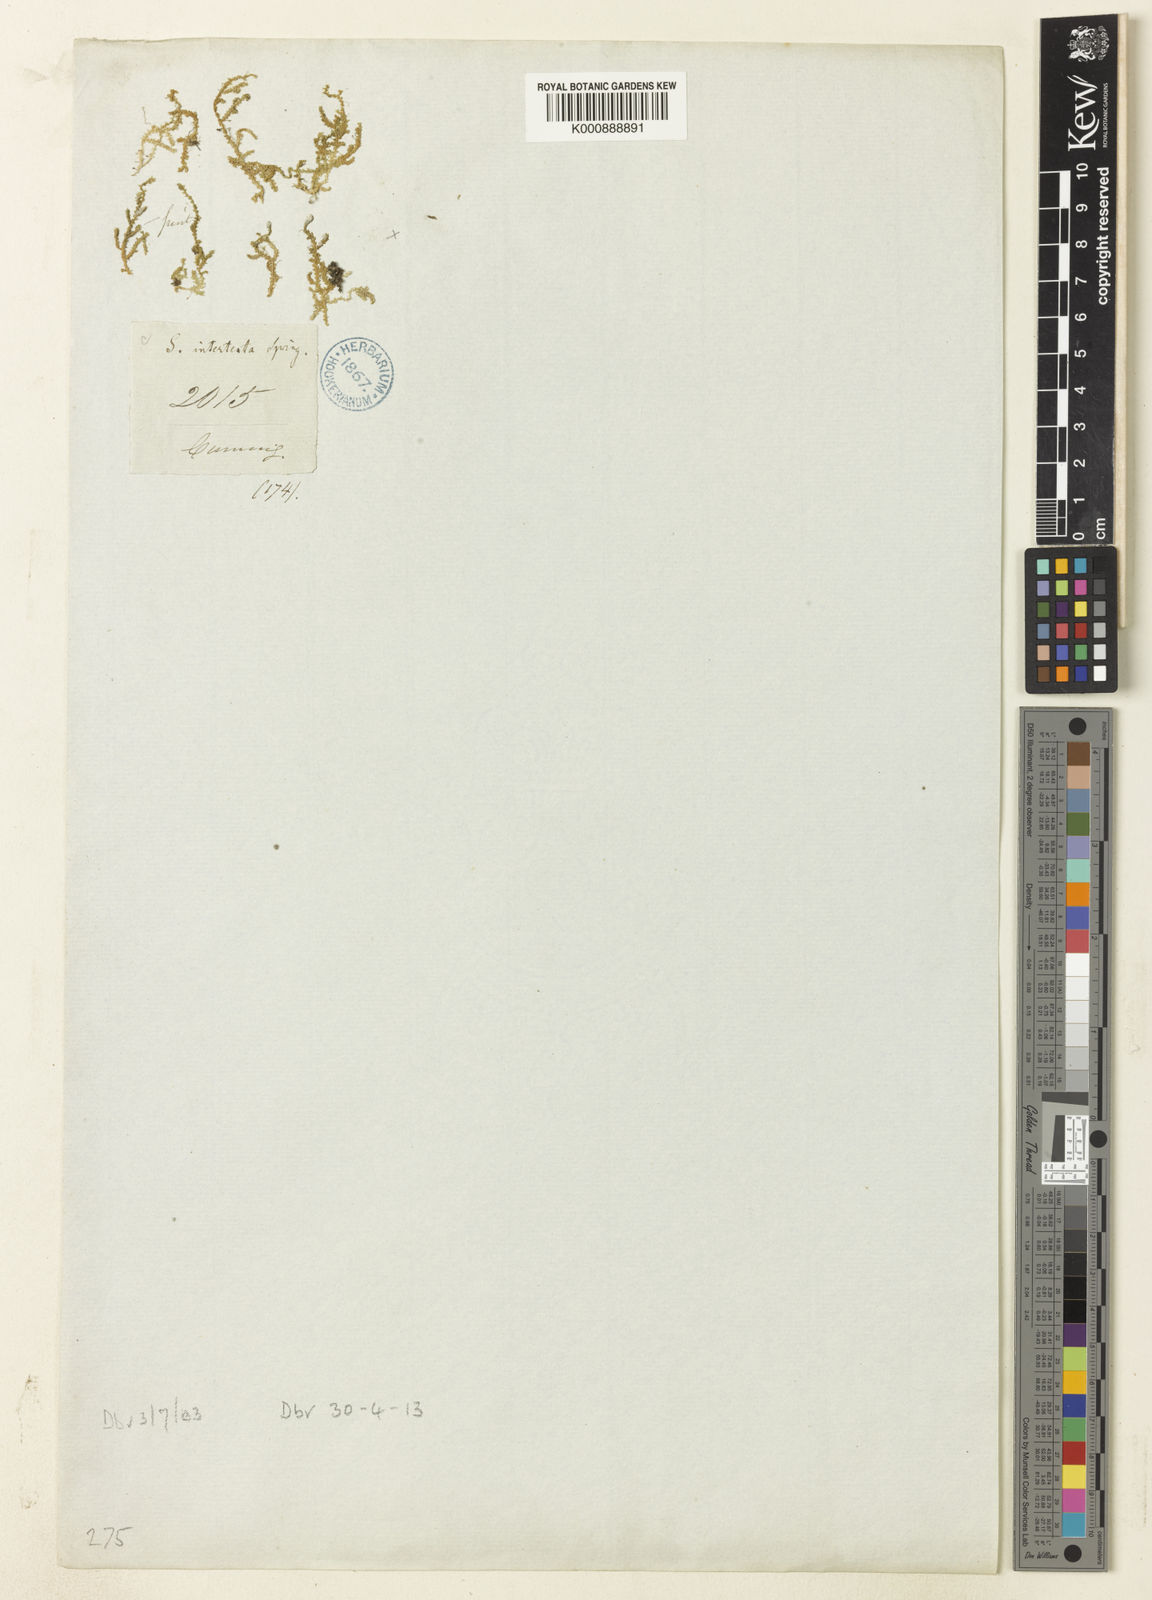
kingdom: Plantae
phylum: Tracheophyta
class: Lycopodiopsida
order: Selaginellales
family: Selaginellaceae
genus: Selaginella
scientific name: Selaginella intertexta
